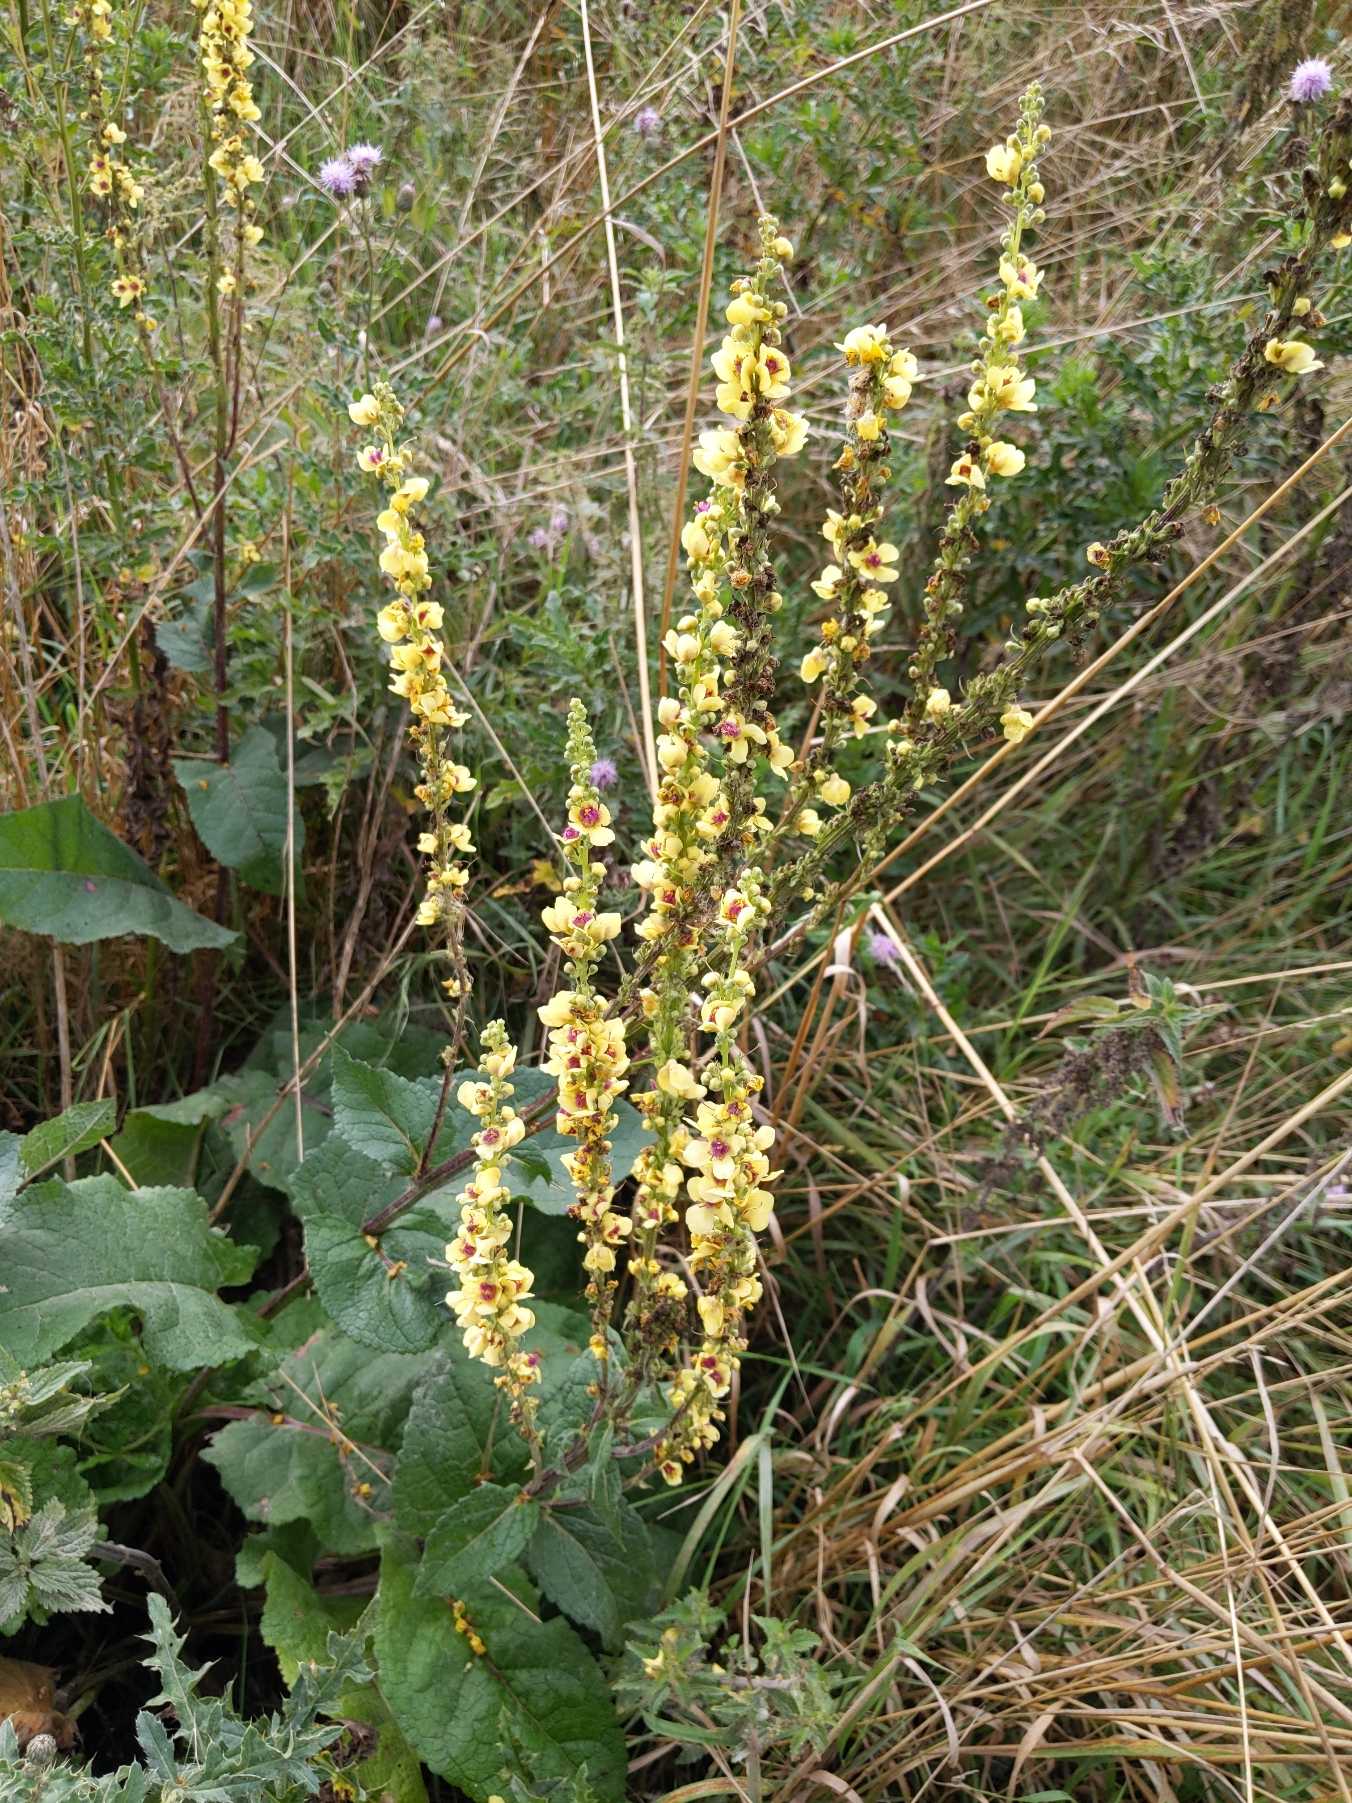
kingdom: Plantae
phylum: Tracheophyta
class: Magnoliopsida
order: Lamiales
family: Scrophulariaceae
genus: Verbascum
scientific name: Verbascum nigrum
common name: Mørk kongelys
